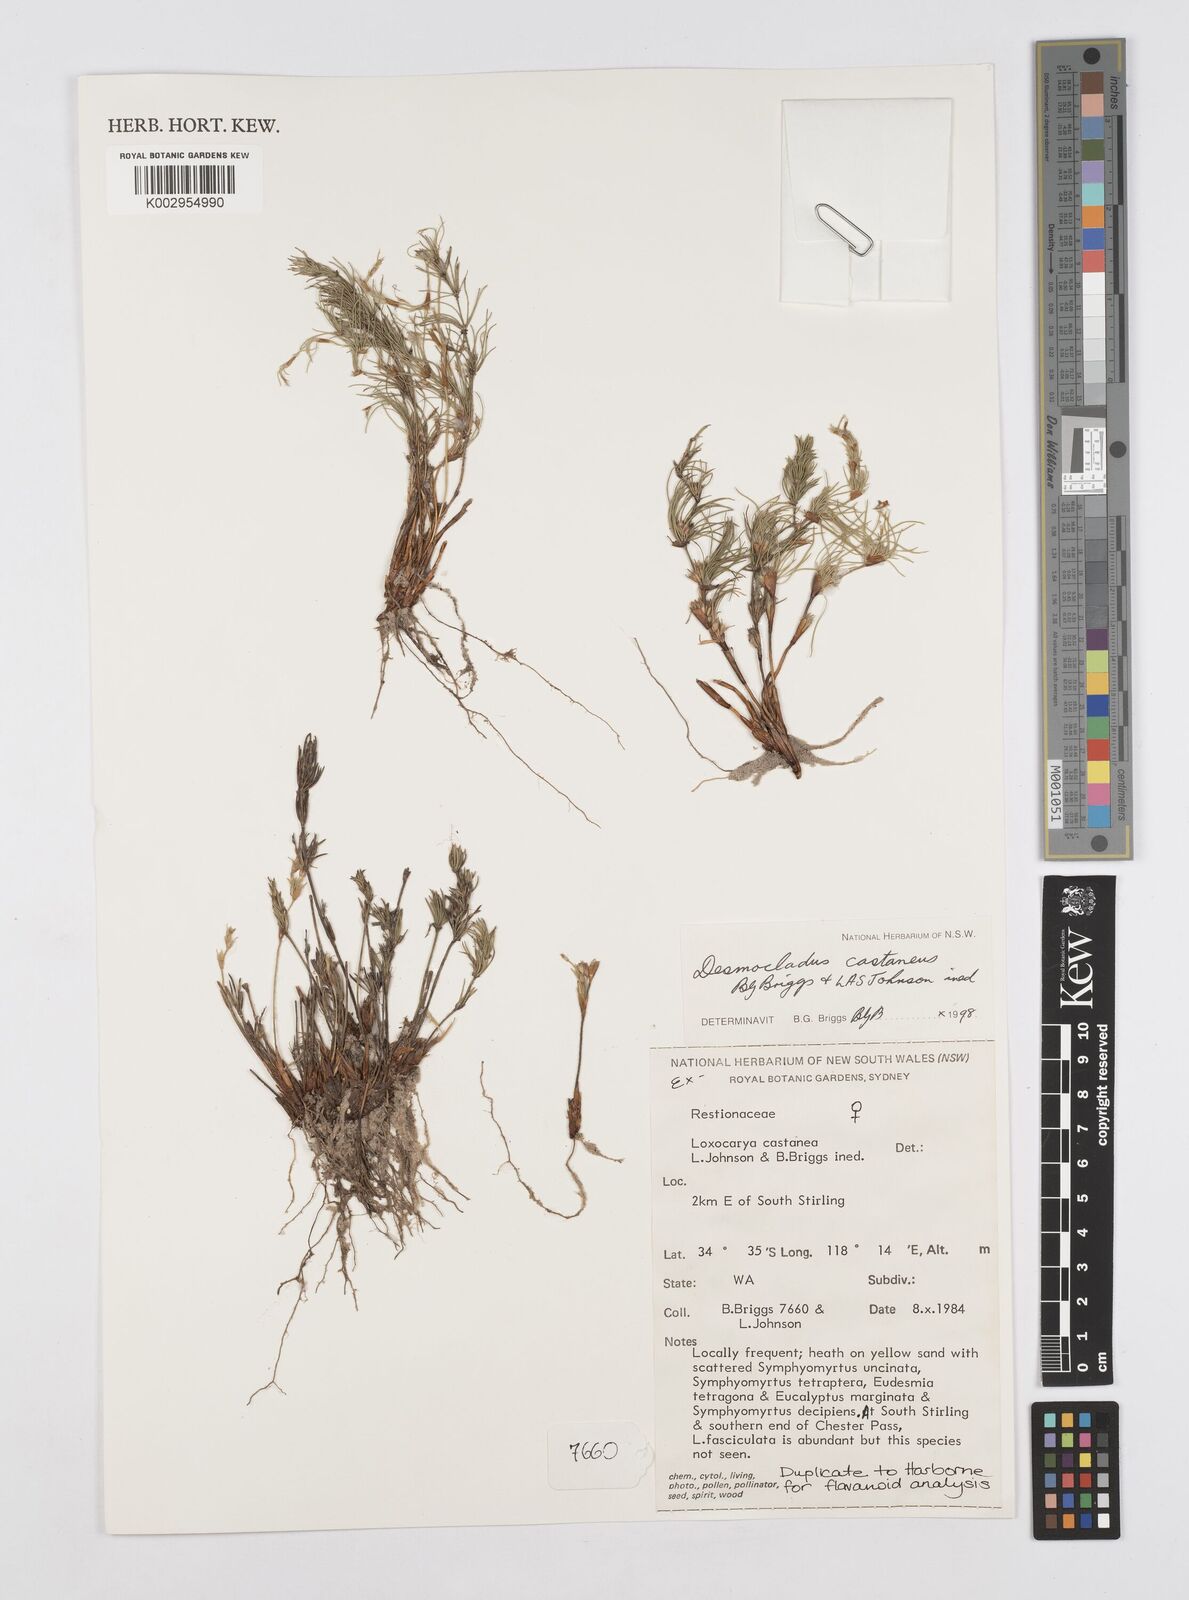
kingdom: Plantae
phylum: Tracheophyta
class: Liliopsida
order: Poales
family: Restionaceae
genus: Desmocladus
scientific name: Desmocladus castaneus
